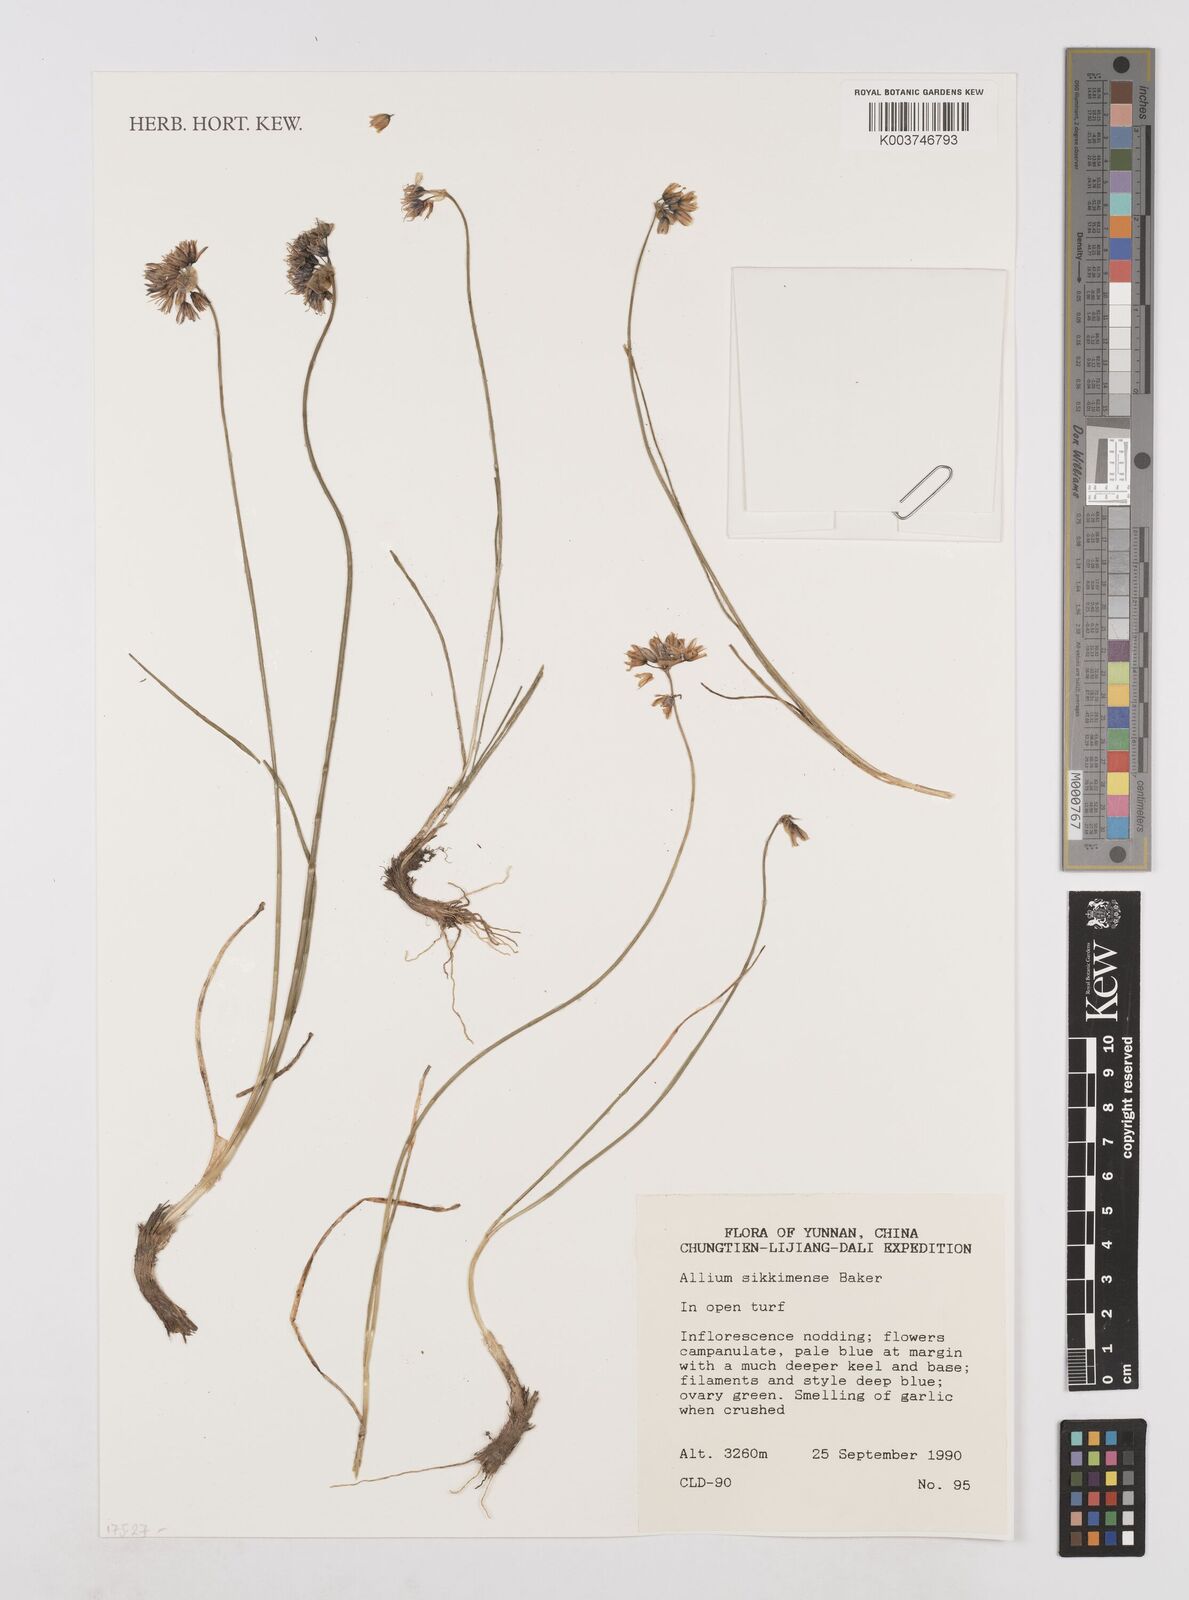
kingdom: Plantae
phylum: Tracheophyta
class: Liliopsida
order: Asparagales
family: Amaryllidaceae
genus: Allium
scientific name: Allium sikkimense
